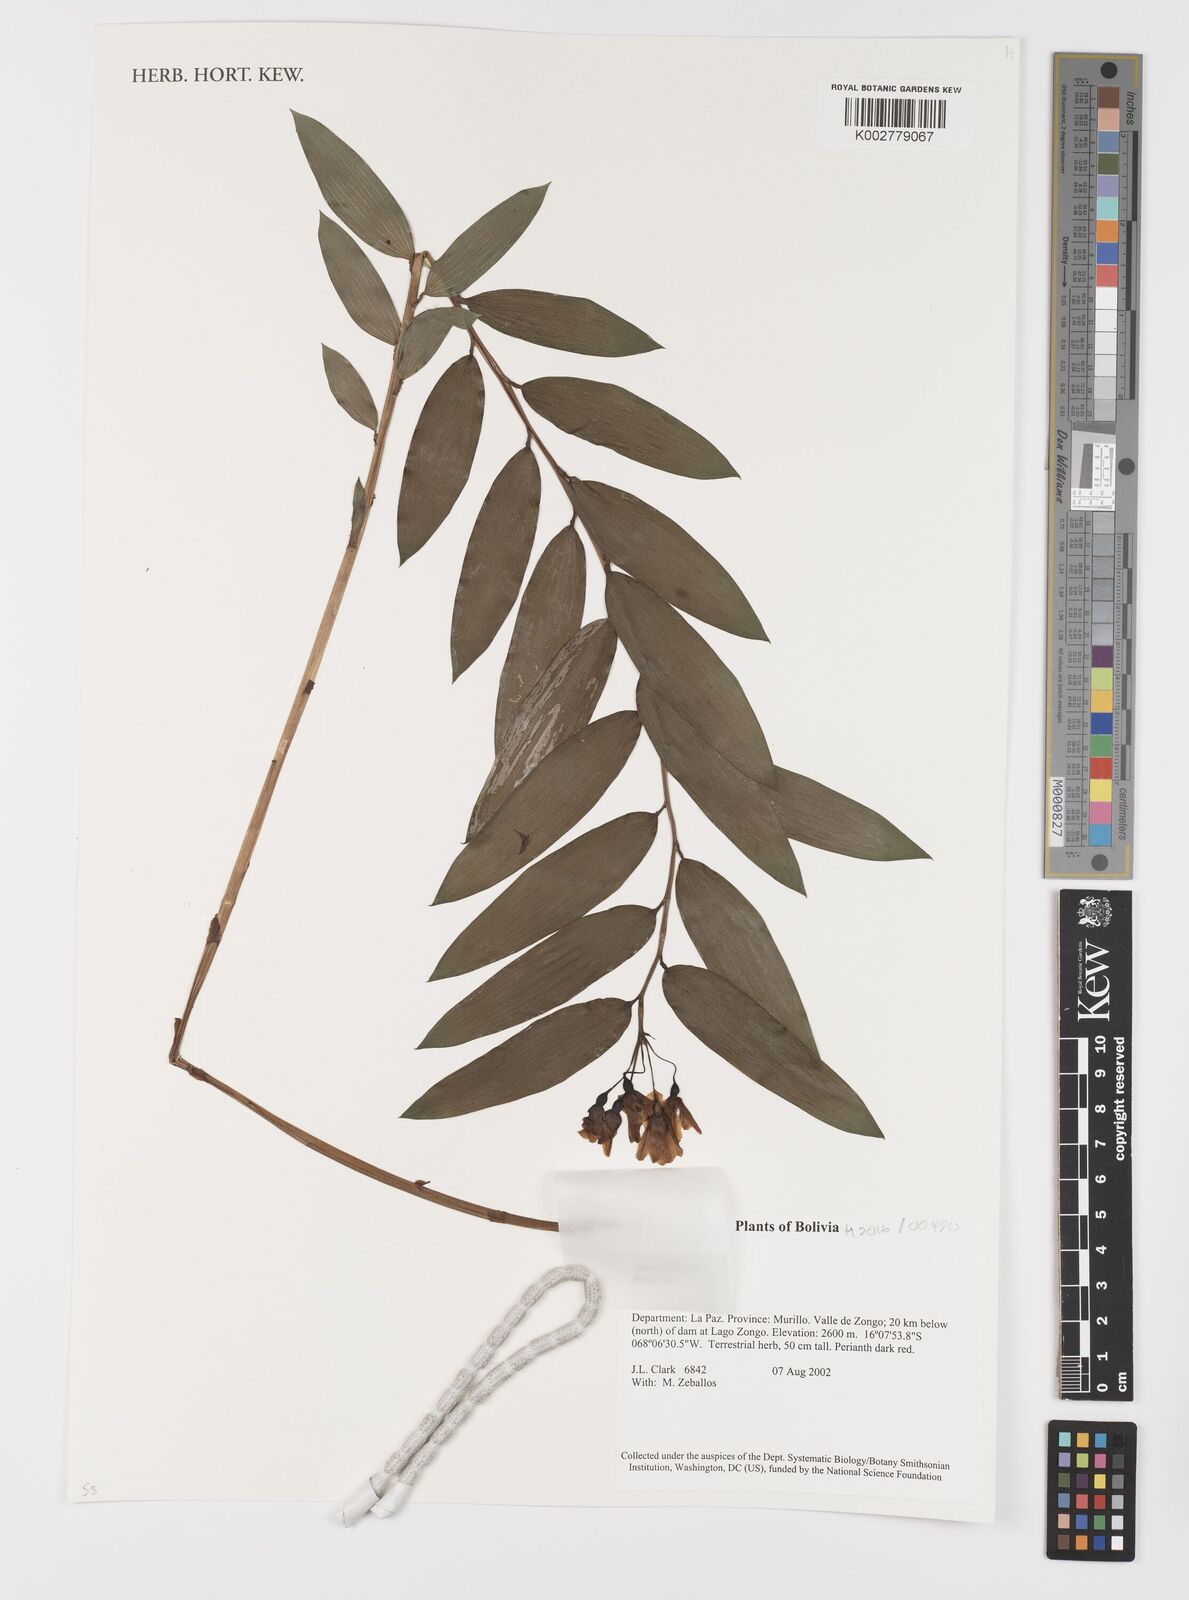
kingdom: Plantae
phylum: Tracheophyta
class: Liliopsida
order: Liliales
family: Alstroemeriaceae
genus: Bomarea
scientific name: Bomarea
